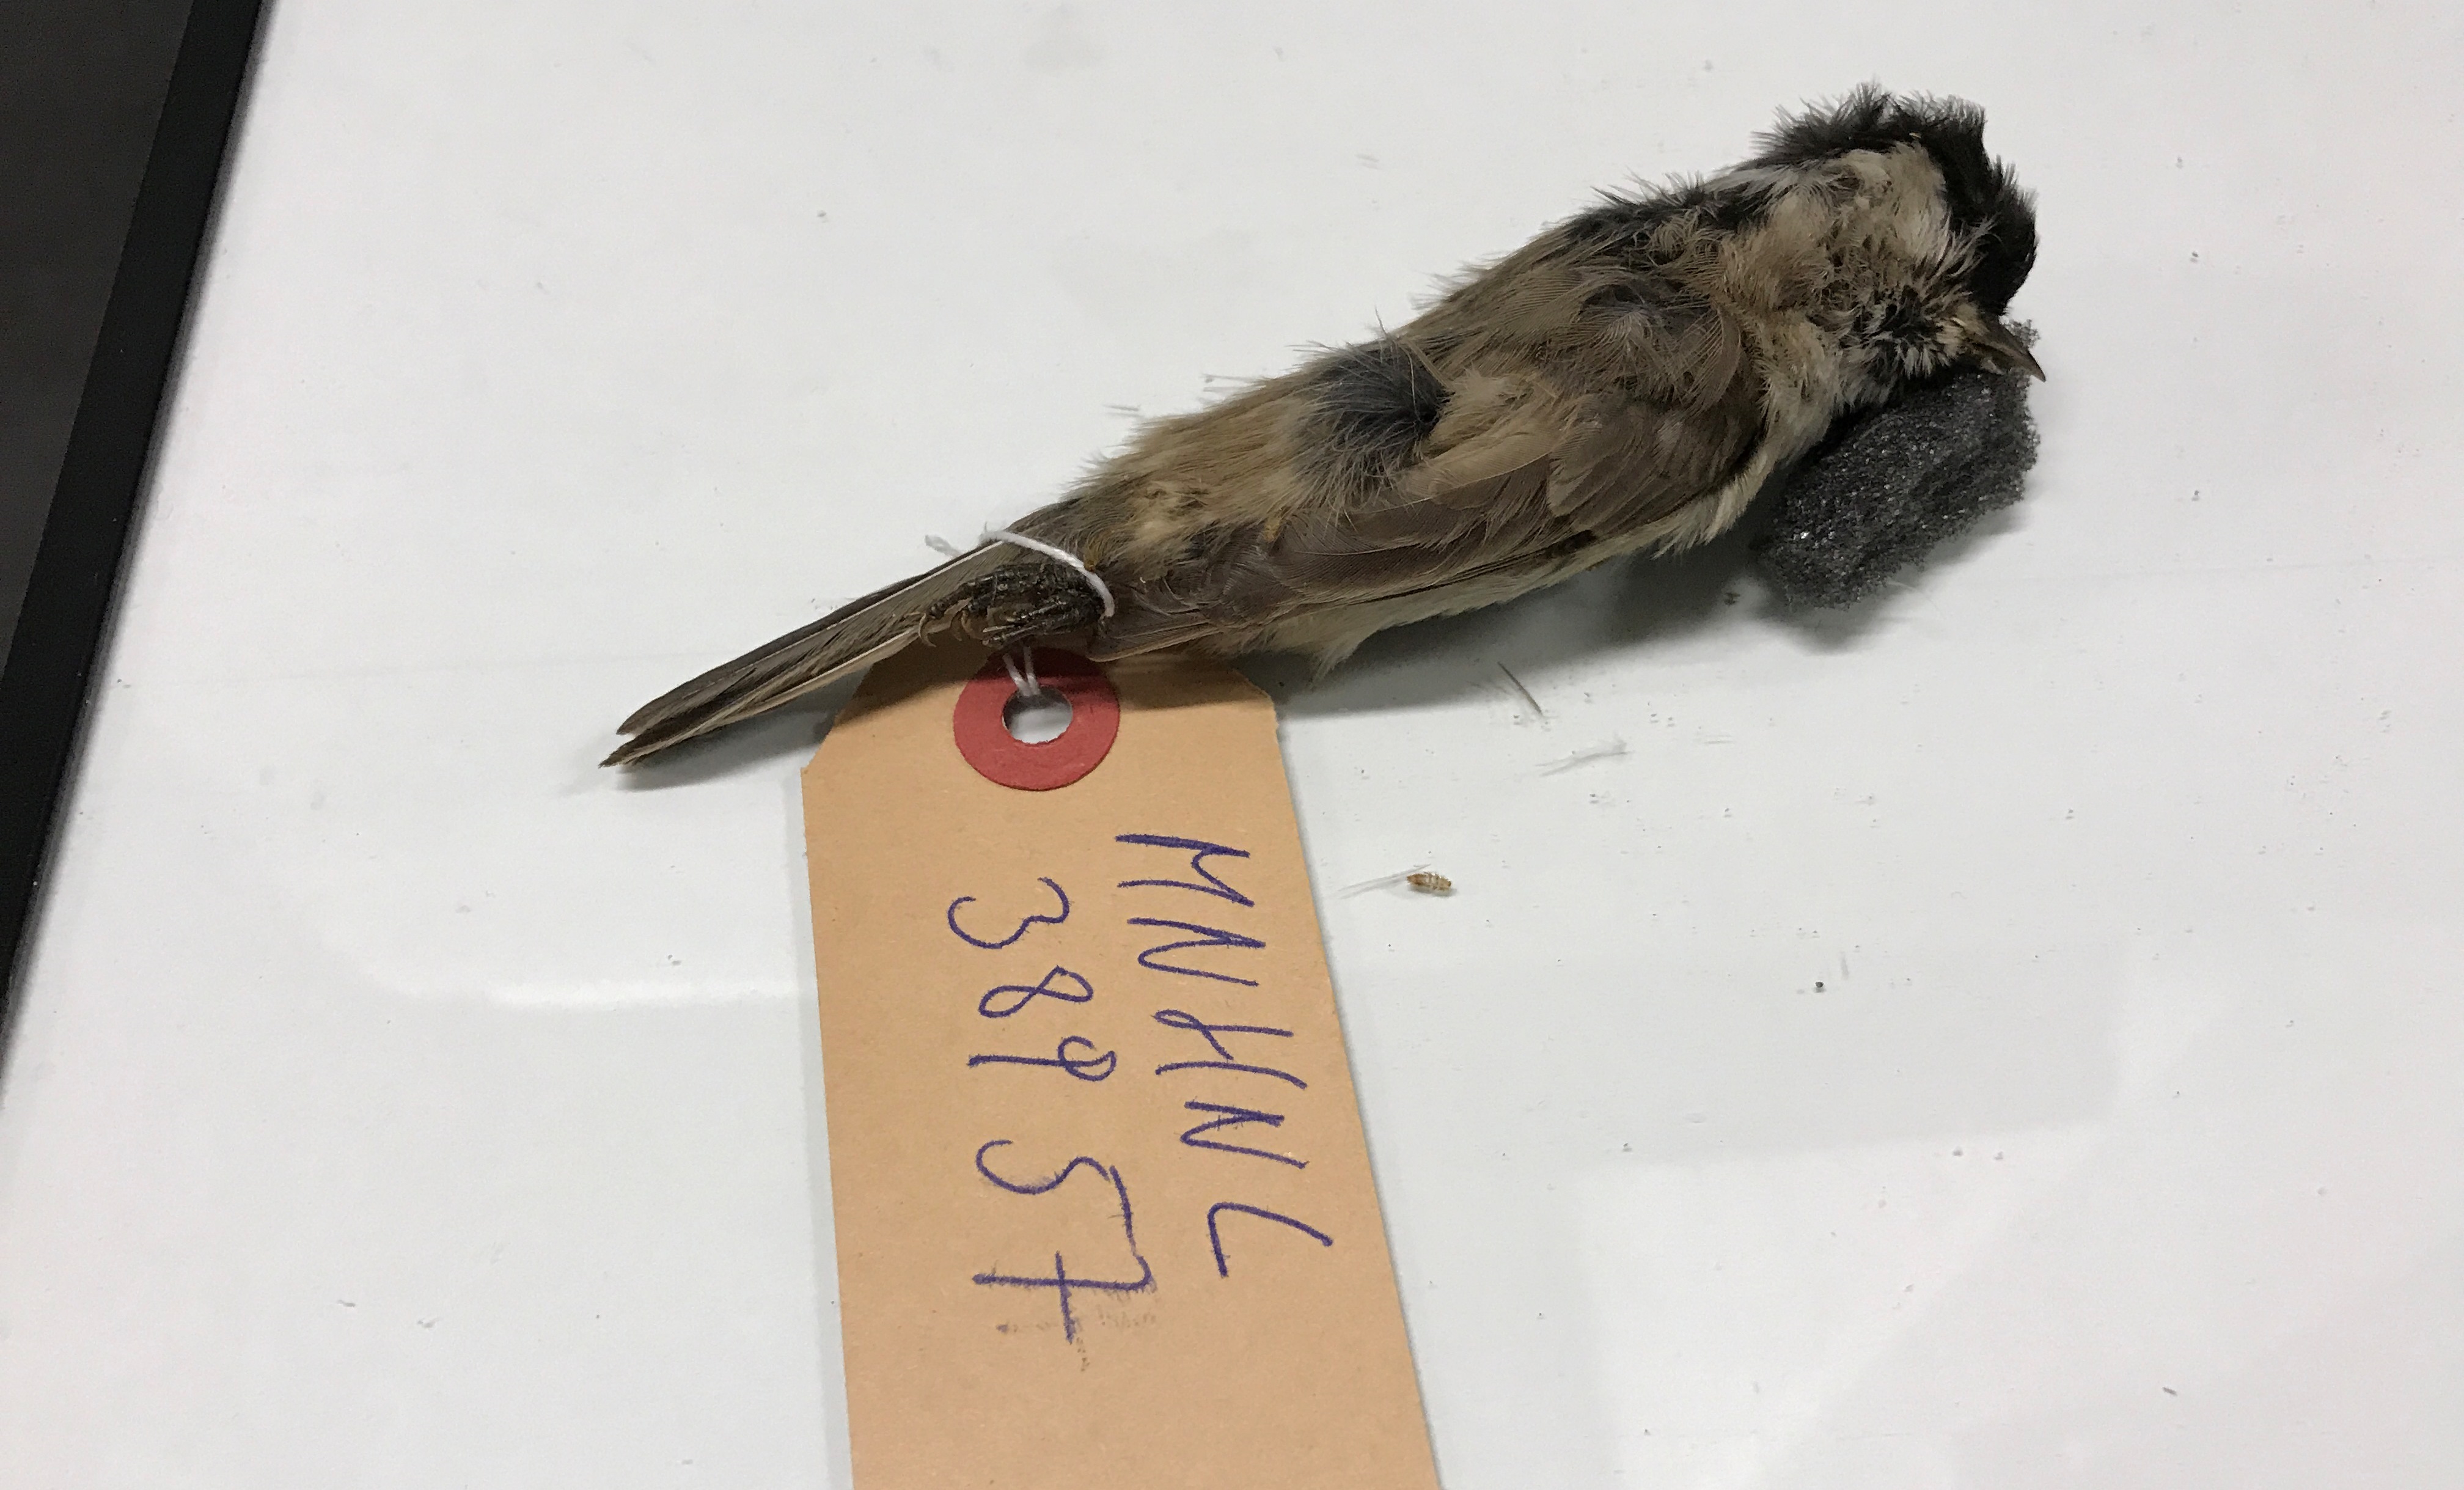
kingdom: Animalia
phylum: Chordata
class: Aves
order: Passeriformes
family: Paridae
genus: Poecile
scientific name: Poecile palustris
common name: Marsh tit
